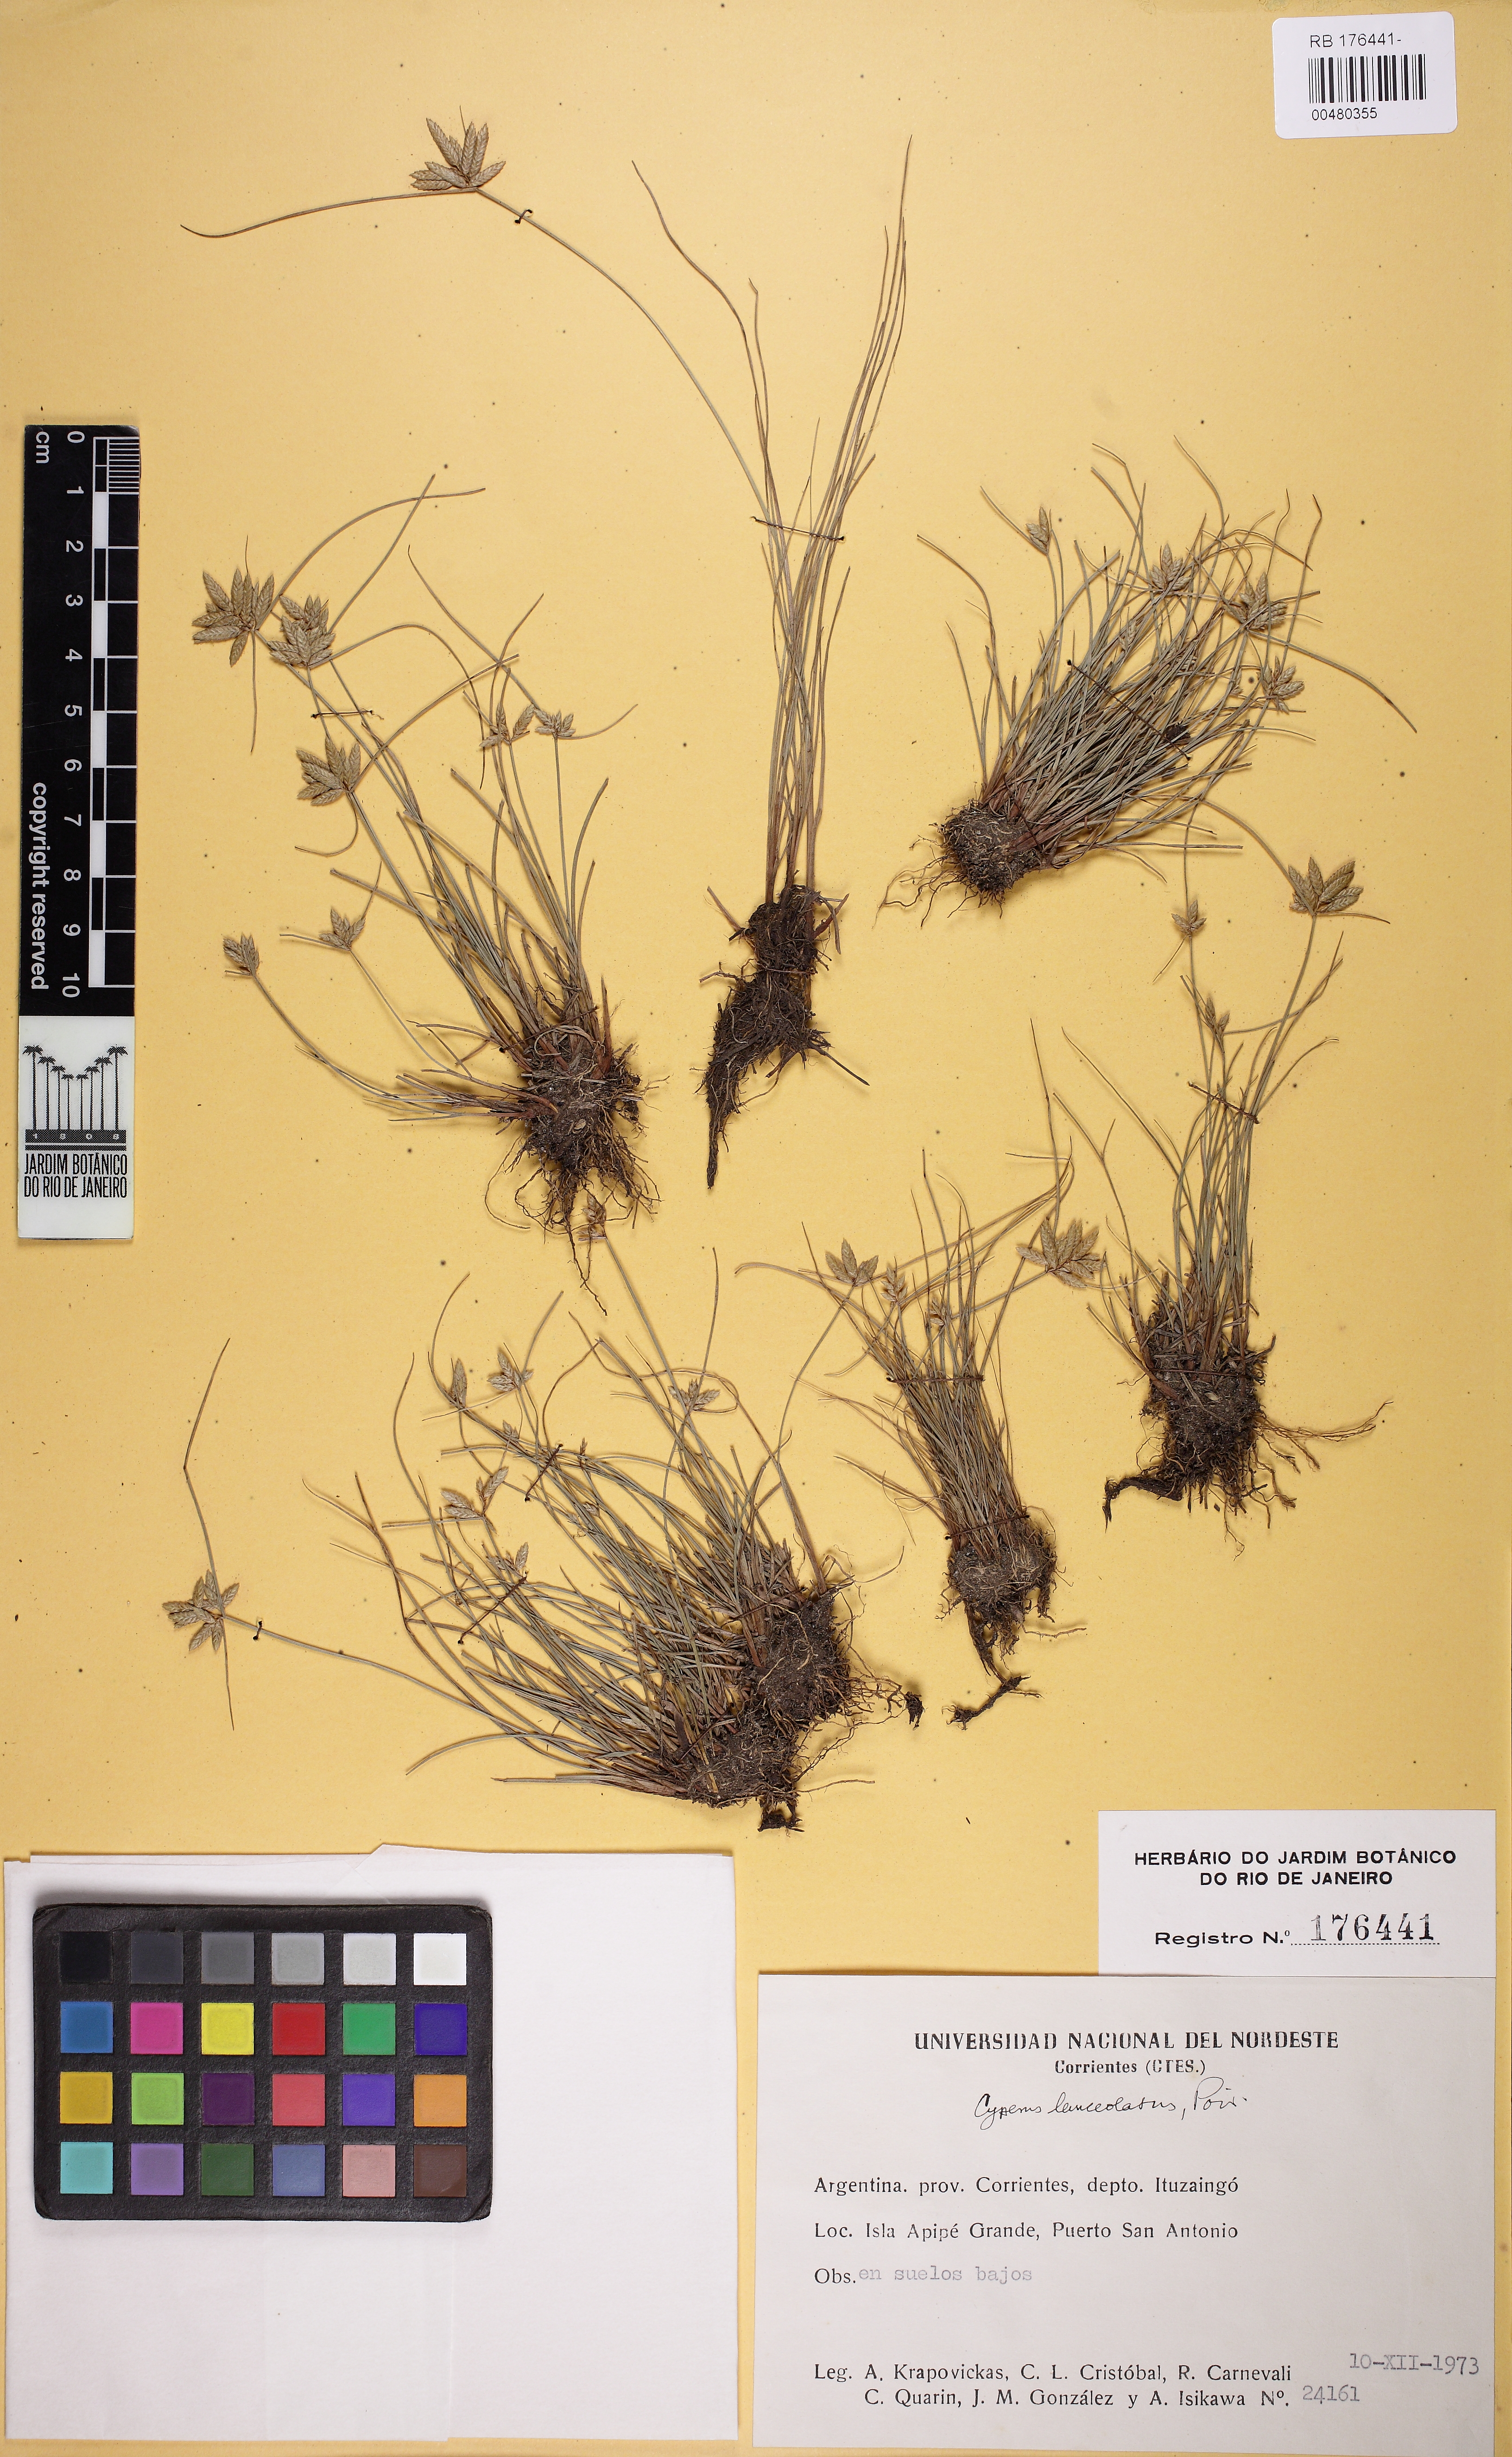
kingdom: Plantae
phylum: Tracheophyta
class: Liliopsida
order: Poales
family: Cyperaceae
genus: Cyperus
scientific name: Cyperus lanceolatus
